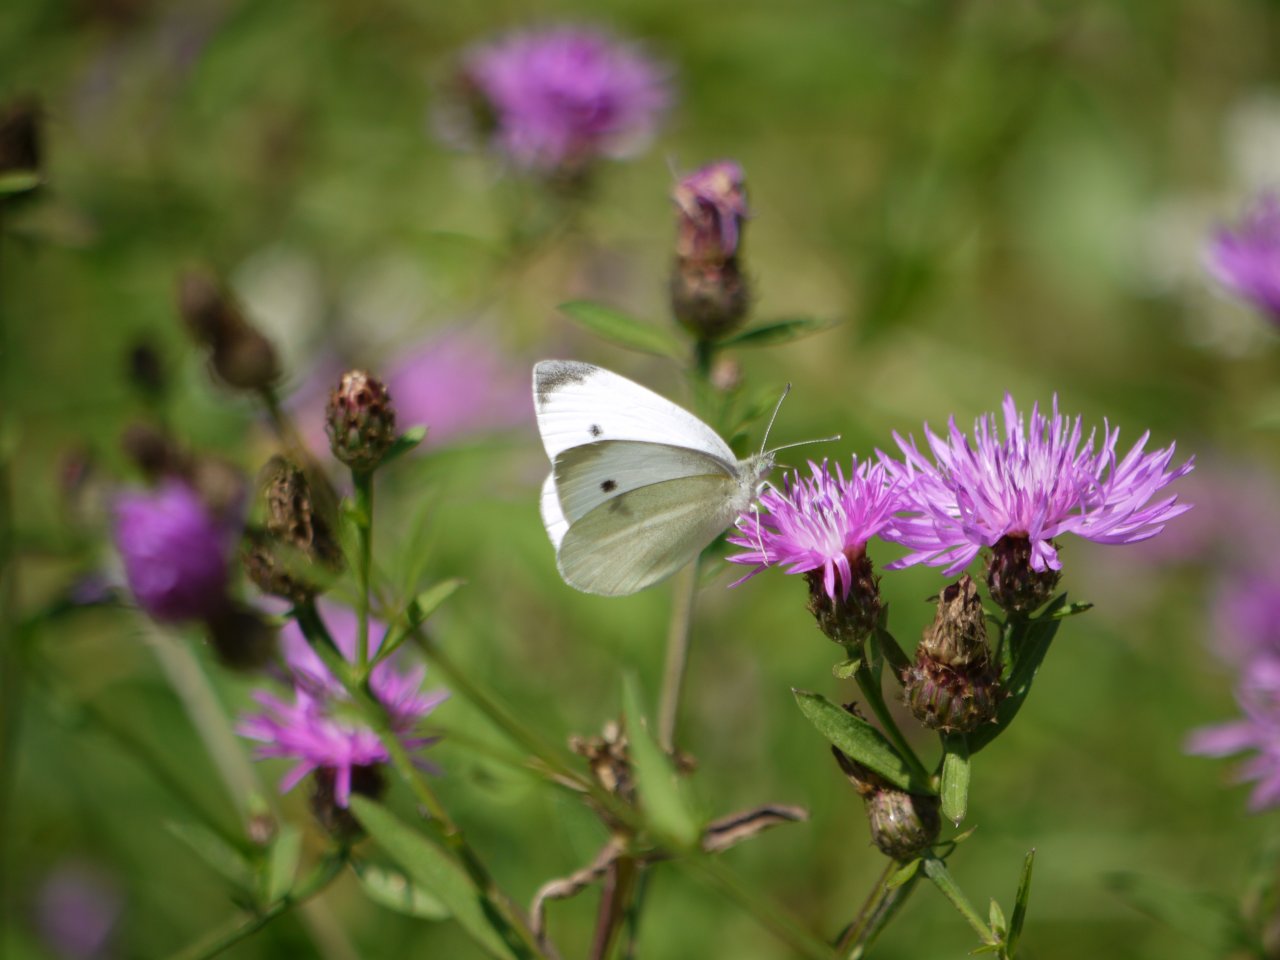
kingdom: Animalia
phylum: Arthropoda
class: Insecta
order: Lepidoptera
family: Pieridae
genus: Pieris
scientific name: Pieris rapae
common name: Cabbage White
